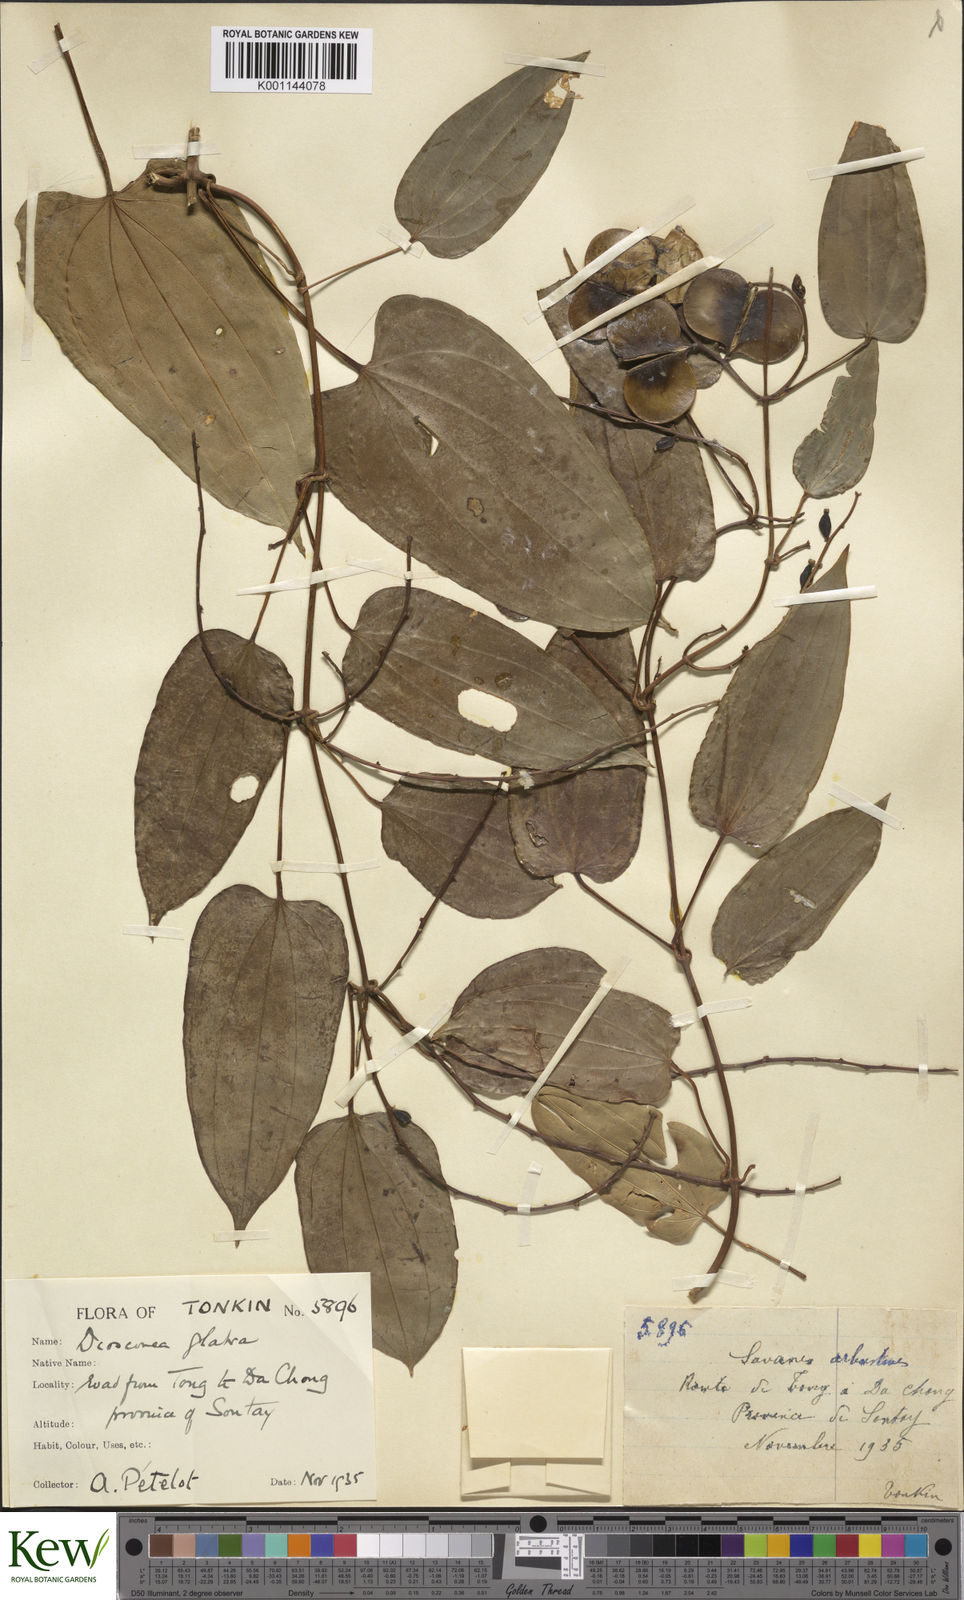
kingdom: Plantae
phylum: Tracheophyta
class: Liliopsida
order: Dioscoreales
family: Dioscoreaceae
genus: Dioscorea
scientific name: Dioscorea glabra
